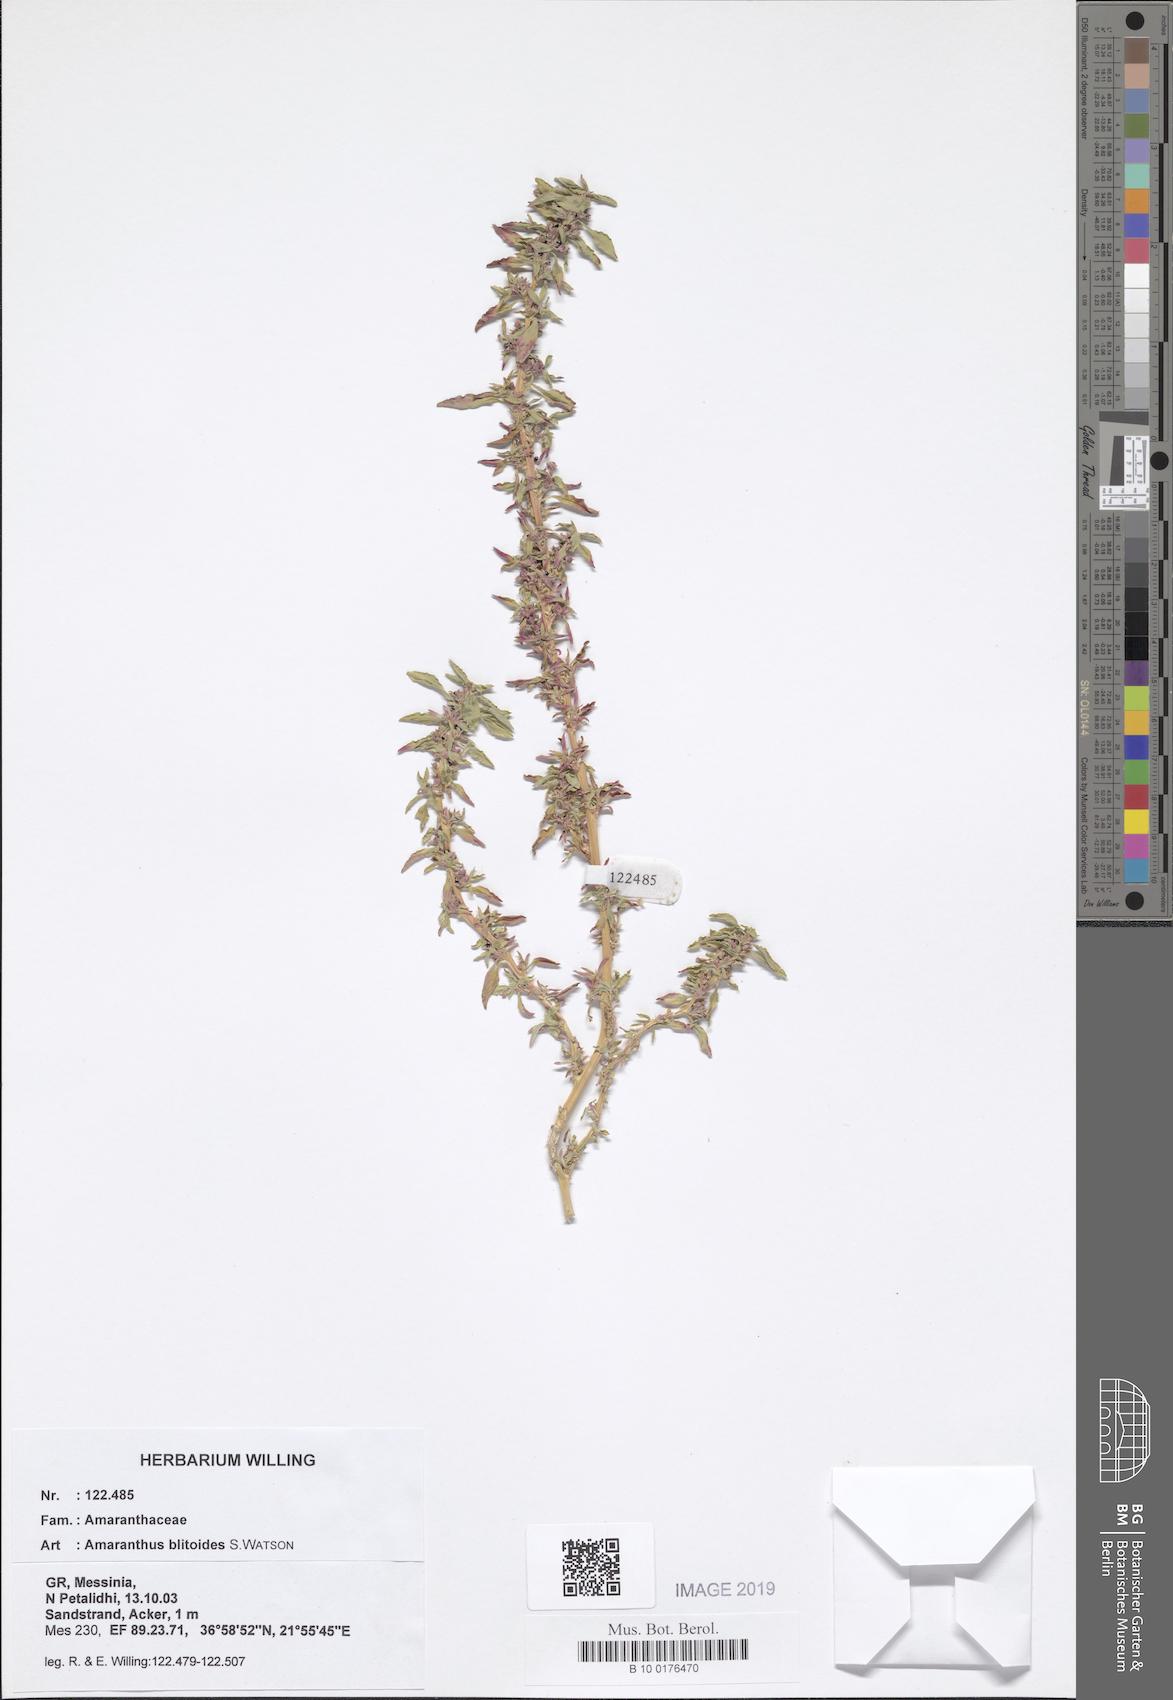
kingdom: Plantae
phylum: Tracheophyta
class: Magnoliopsida
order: Caryophyllales
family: Amaranthaceae
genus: Amaranthus
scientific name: Amaranthus blitoides
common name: Prostrate pigweed
